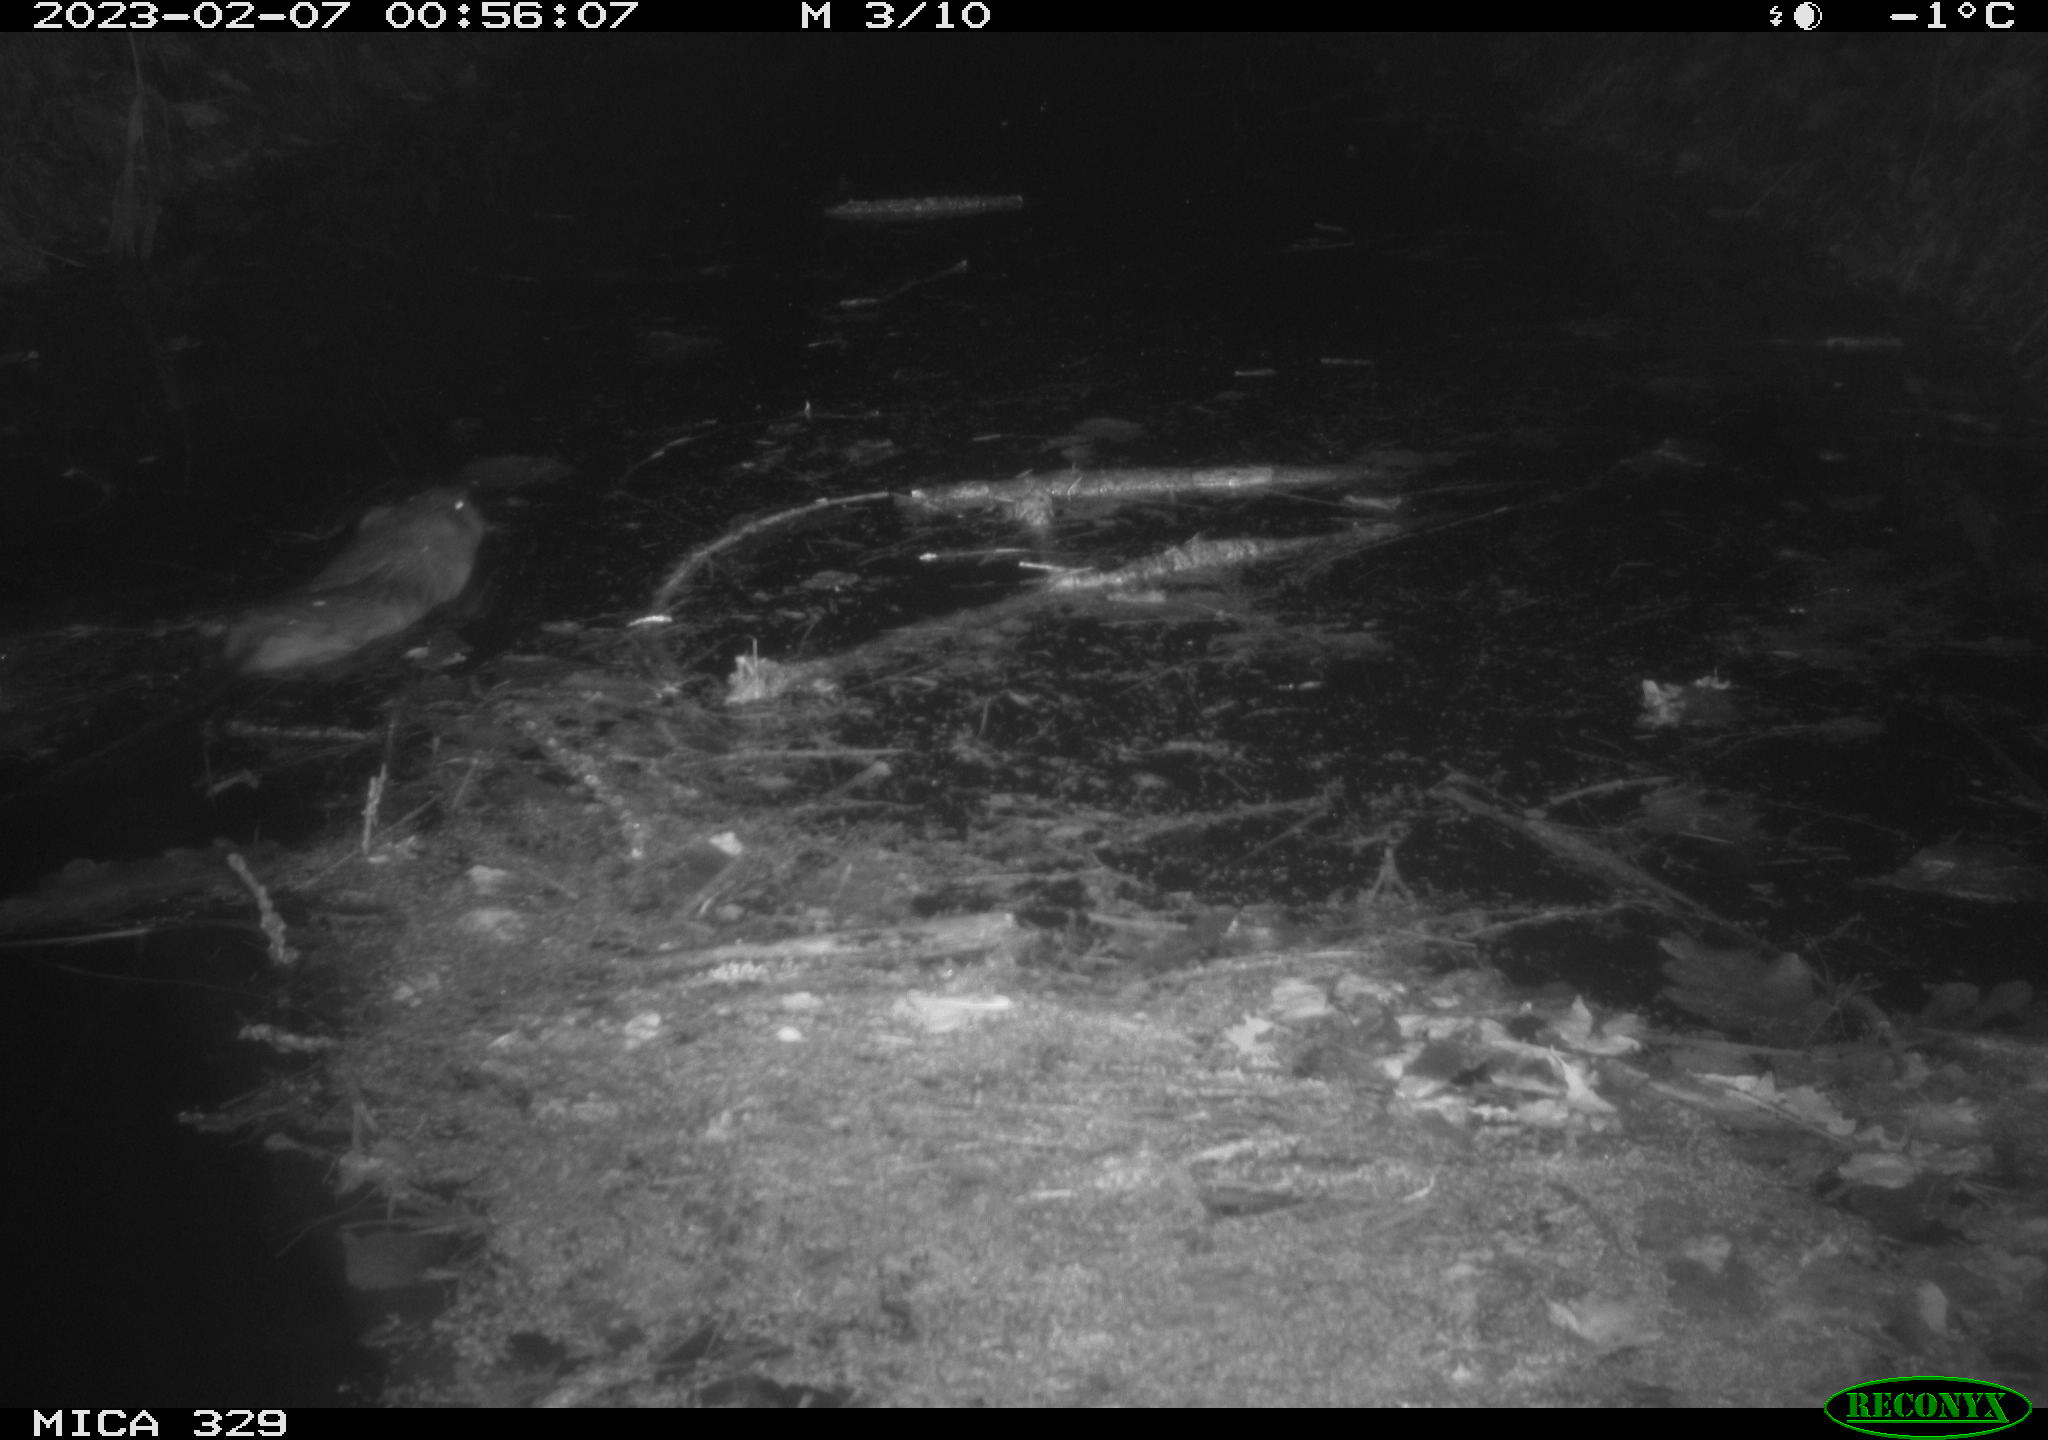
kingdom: Animalia
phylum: Chordata
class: Mammalia
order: Rodentia
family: Cricetidae
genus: Ondatra
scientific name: Ondatra zibethicus
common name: Muskrat
